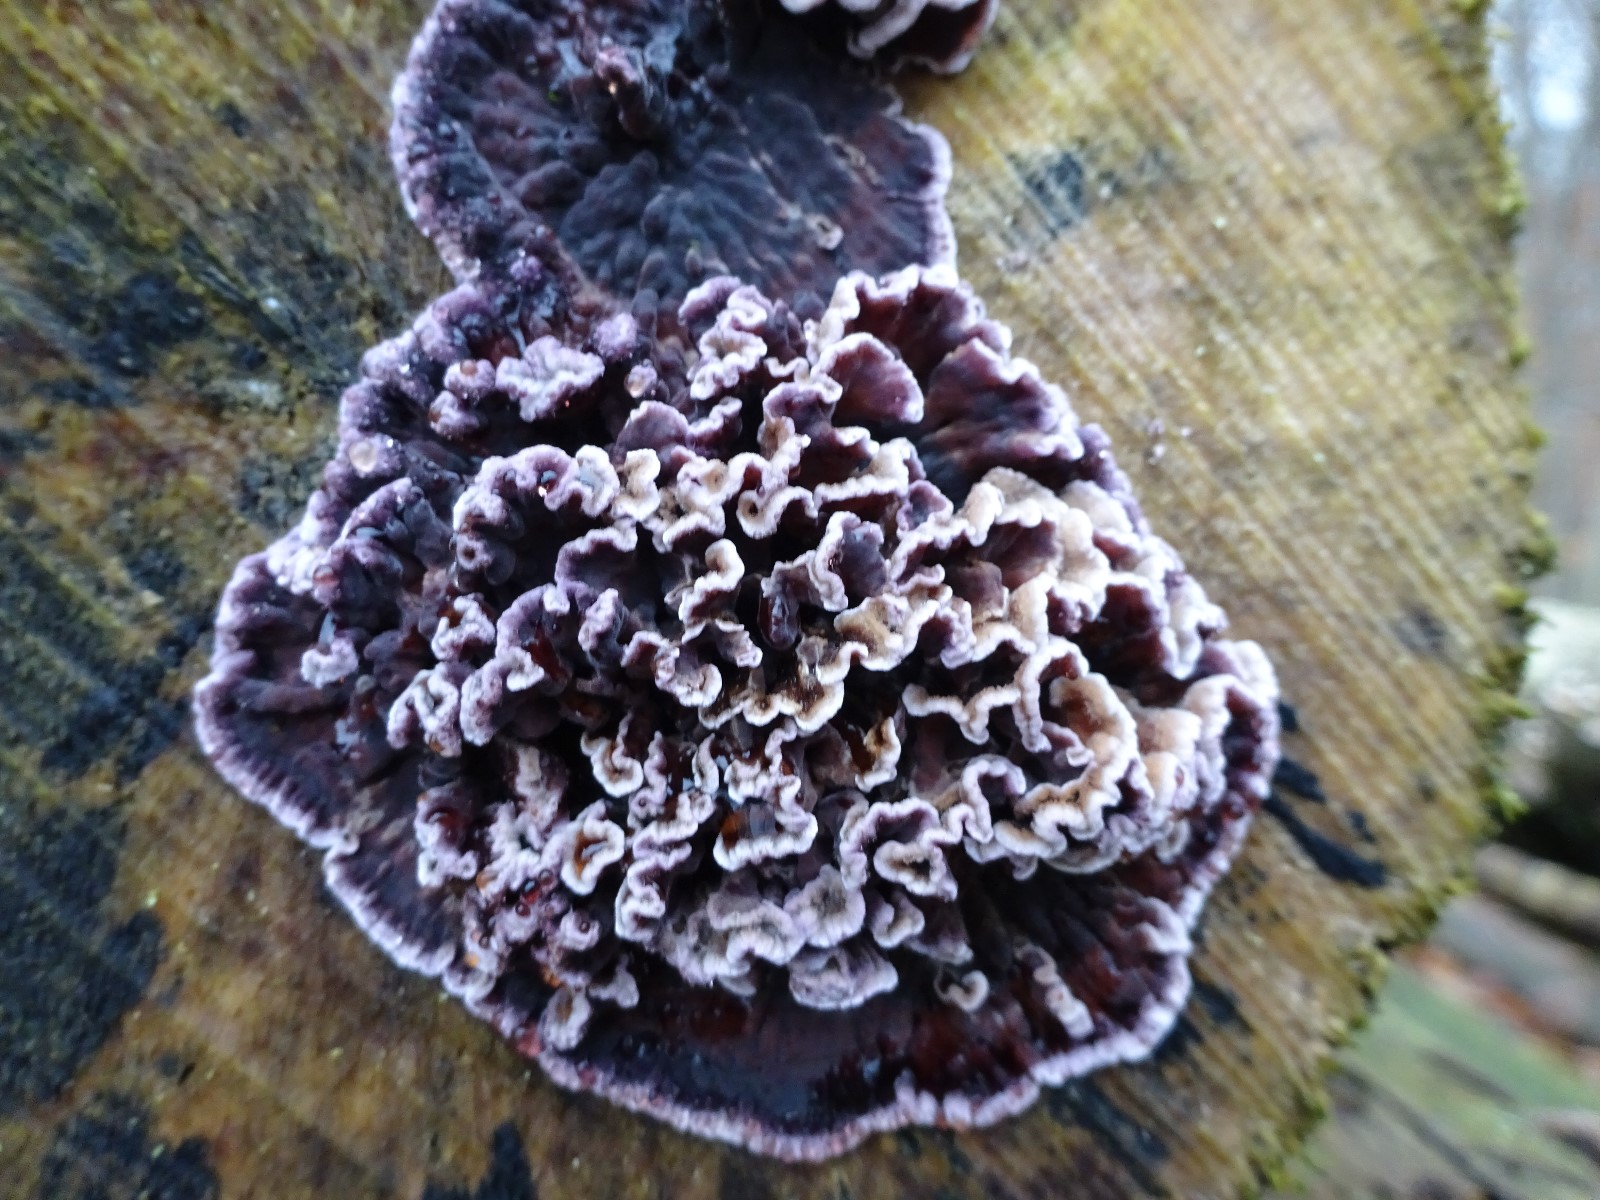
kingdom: Fungi
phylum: Basidiomycota
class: Agaricomycetes
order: Agaricales
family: Cyphellaceae
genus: Chondrostereum
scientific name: Chondrostereum purpureum
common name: purpurlædersvamp
